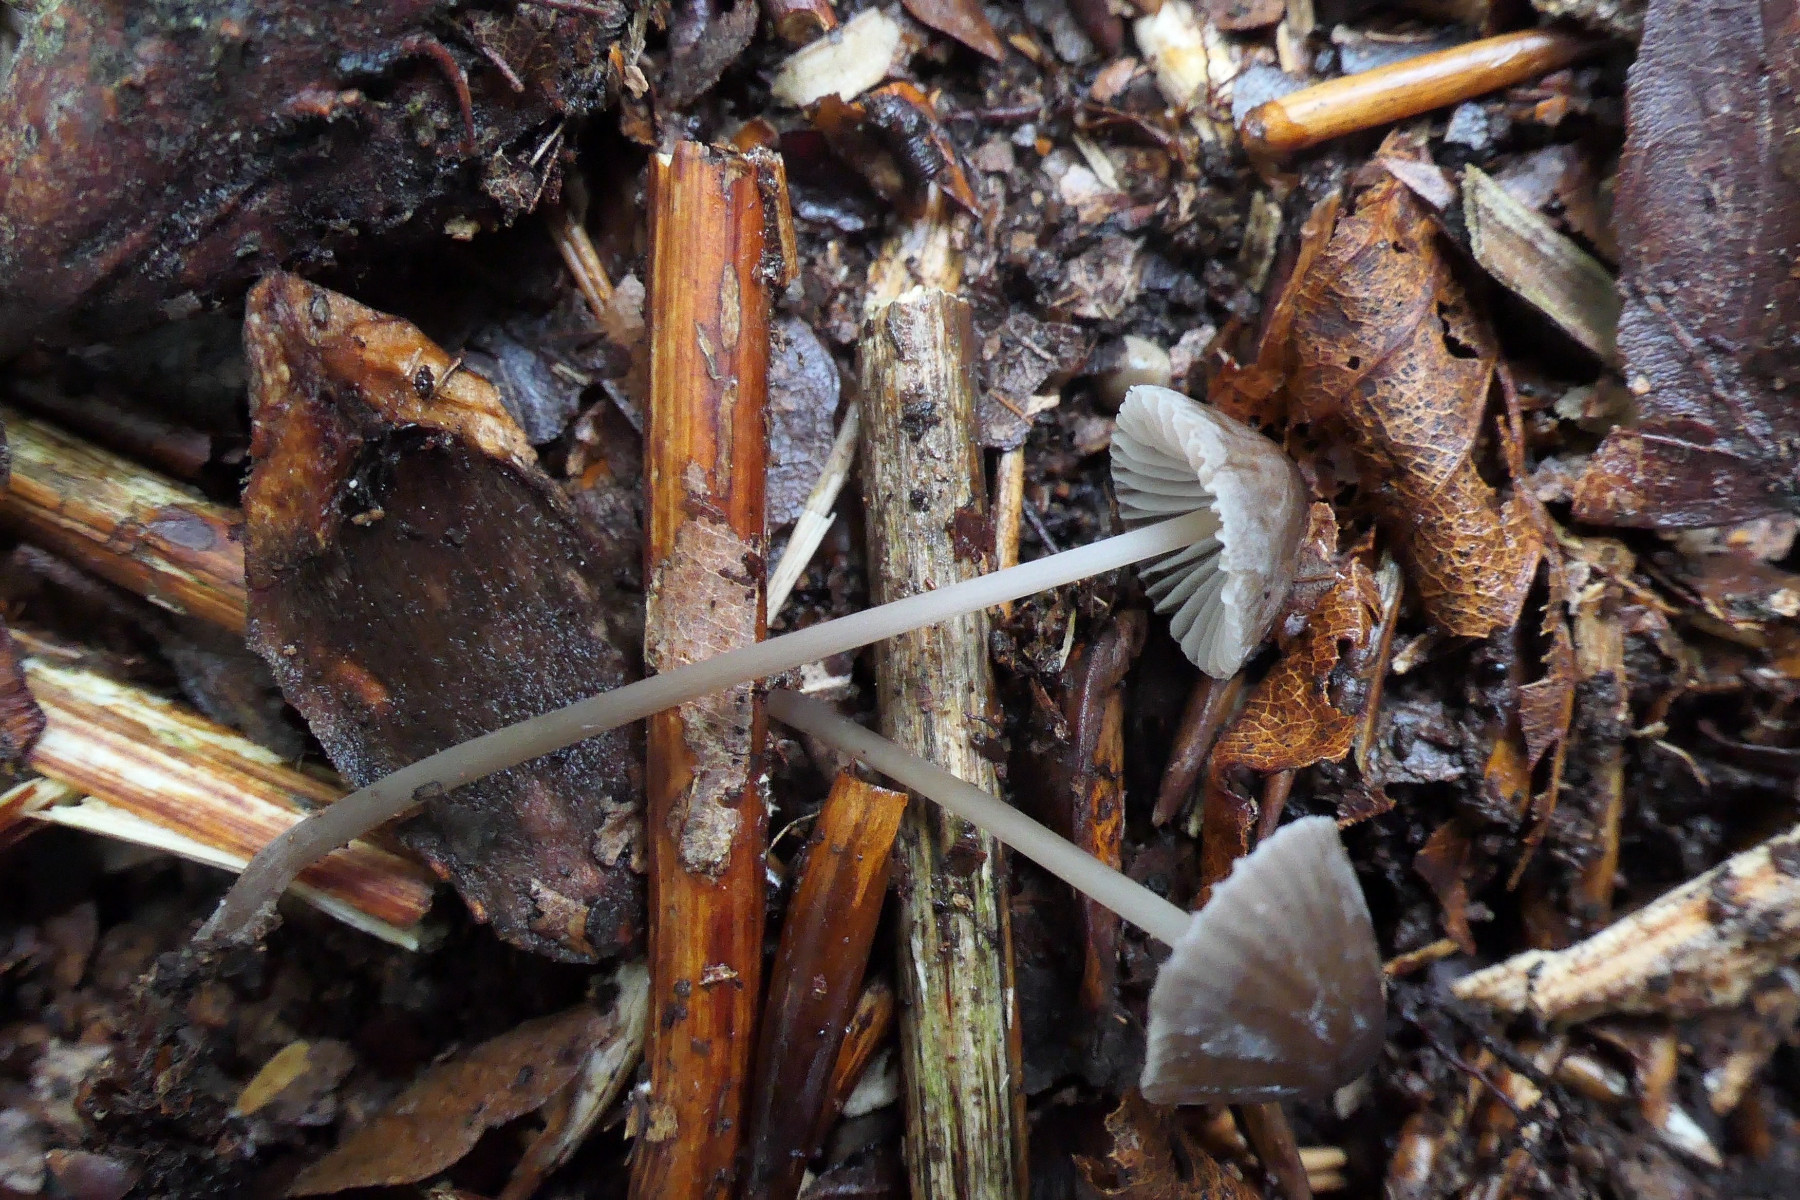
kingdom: Fungi
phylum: Basidiomycota
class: Agaricomycetes
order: Agaricales
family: Mycenaceae
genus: Mycena
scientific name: Mycena erubescens
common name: galde-huesvamp
